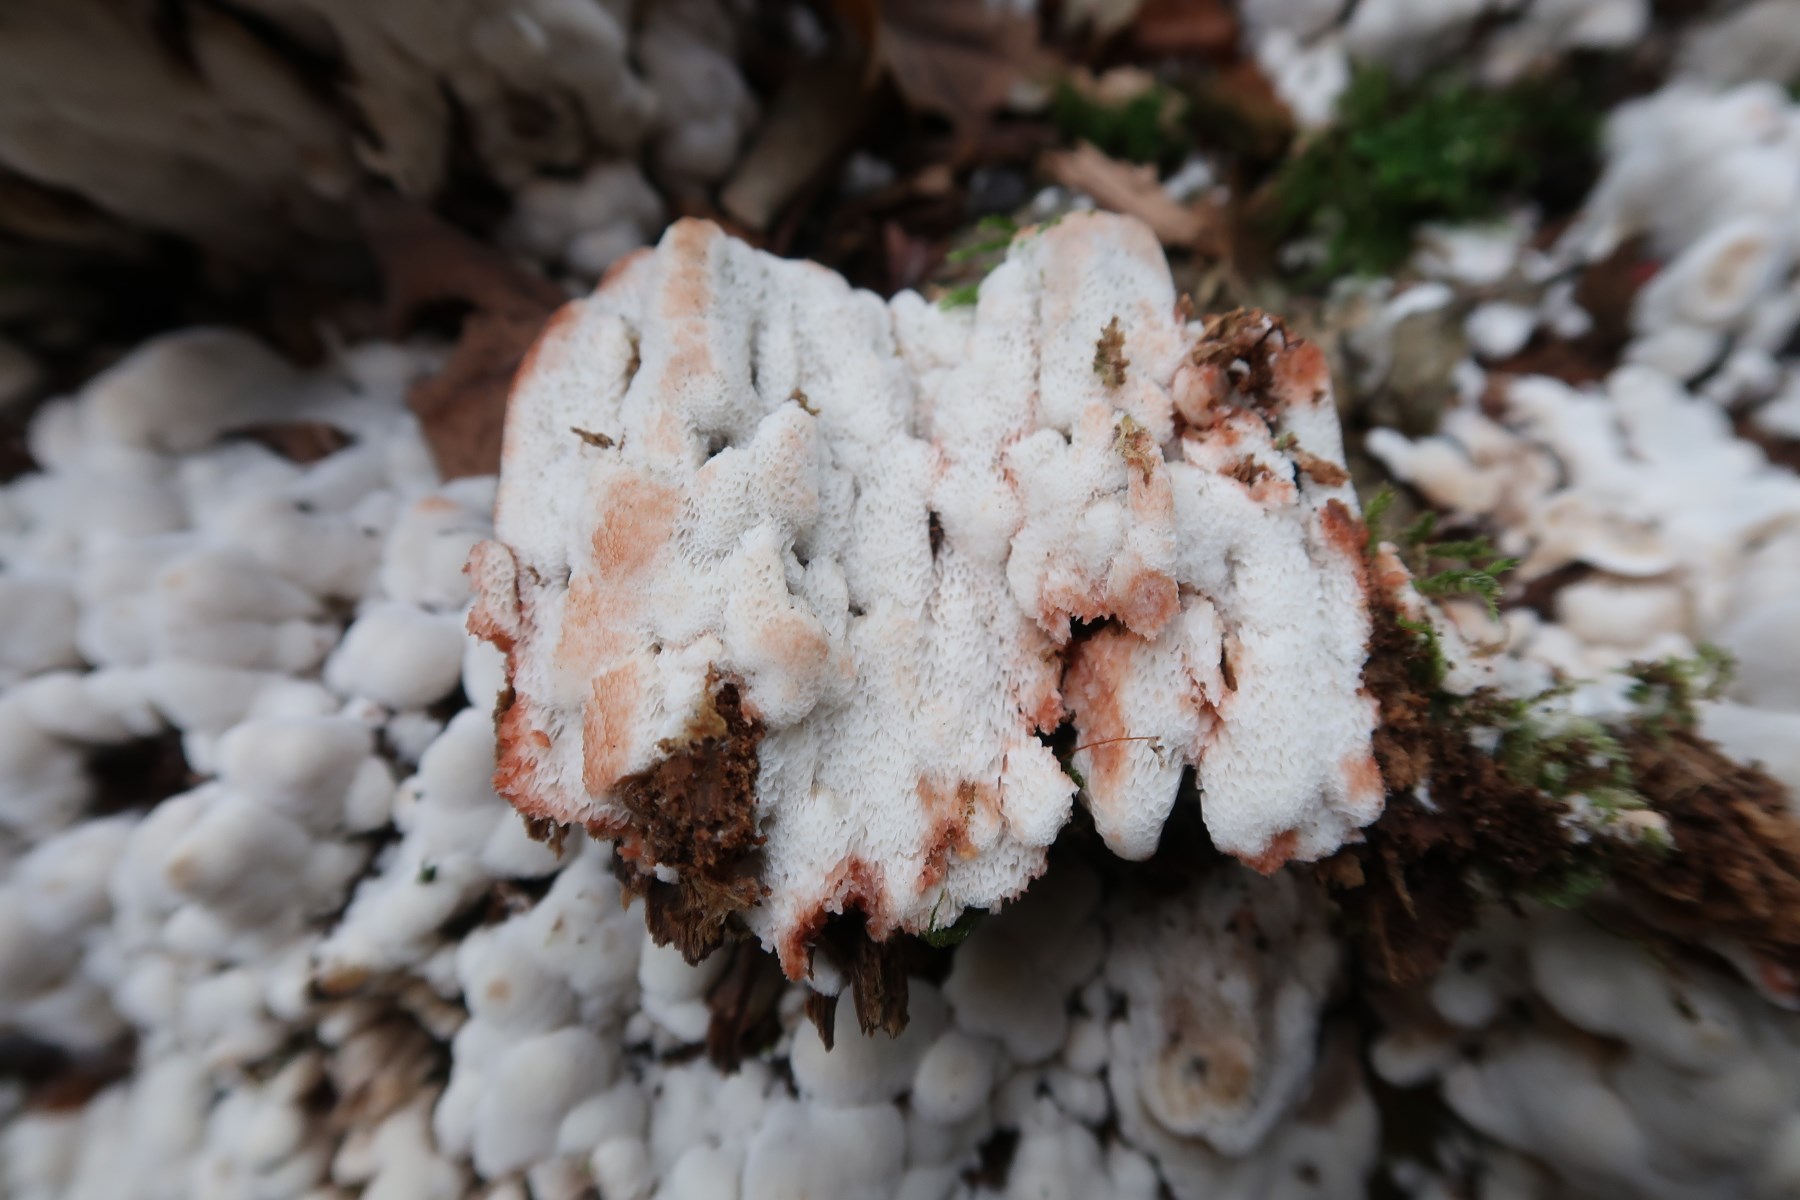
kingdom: Fungi
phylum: Basidiomycota
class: Agaricomycetes
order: Polyporales
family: Meripilaceae
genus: Rigidoporus
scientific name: Rigidoporus sanguinolentus
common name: blod-skorpeporesvamp
